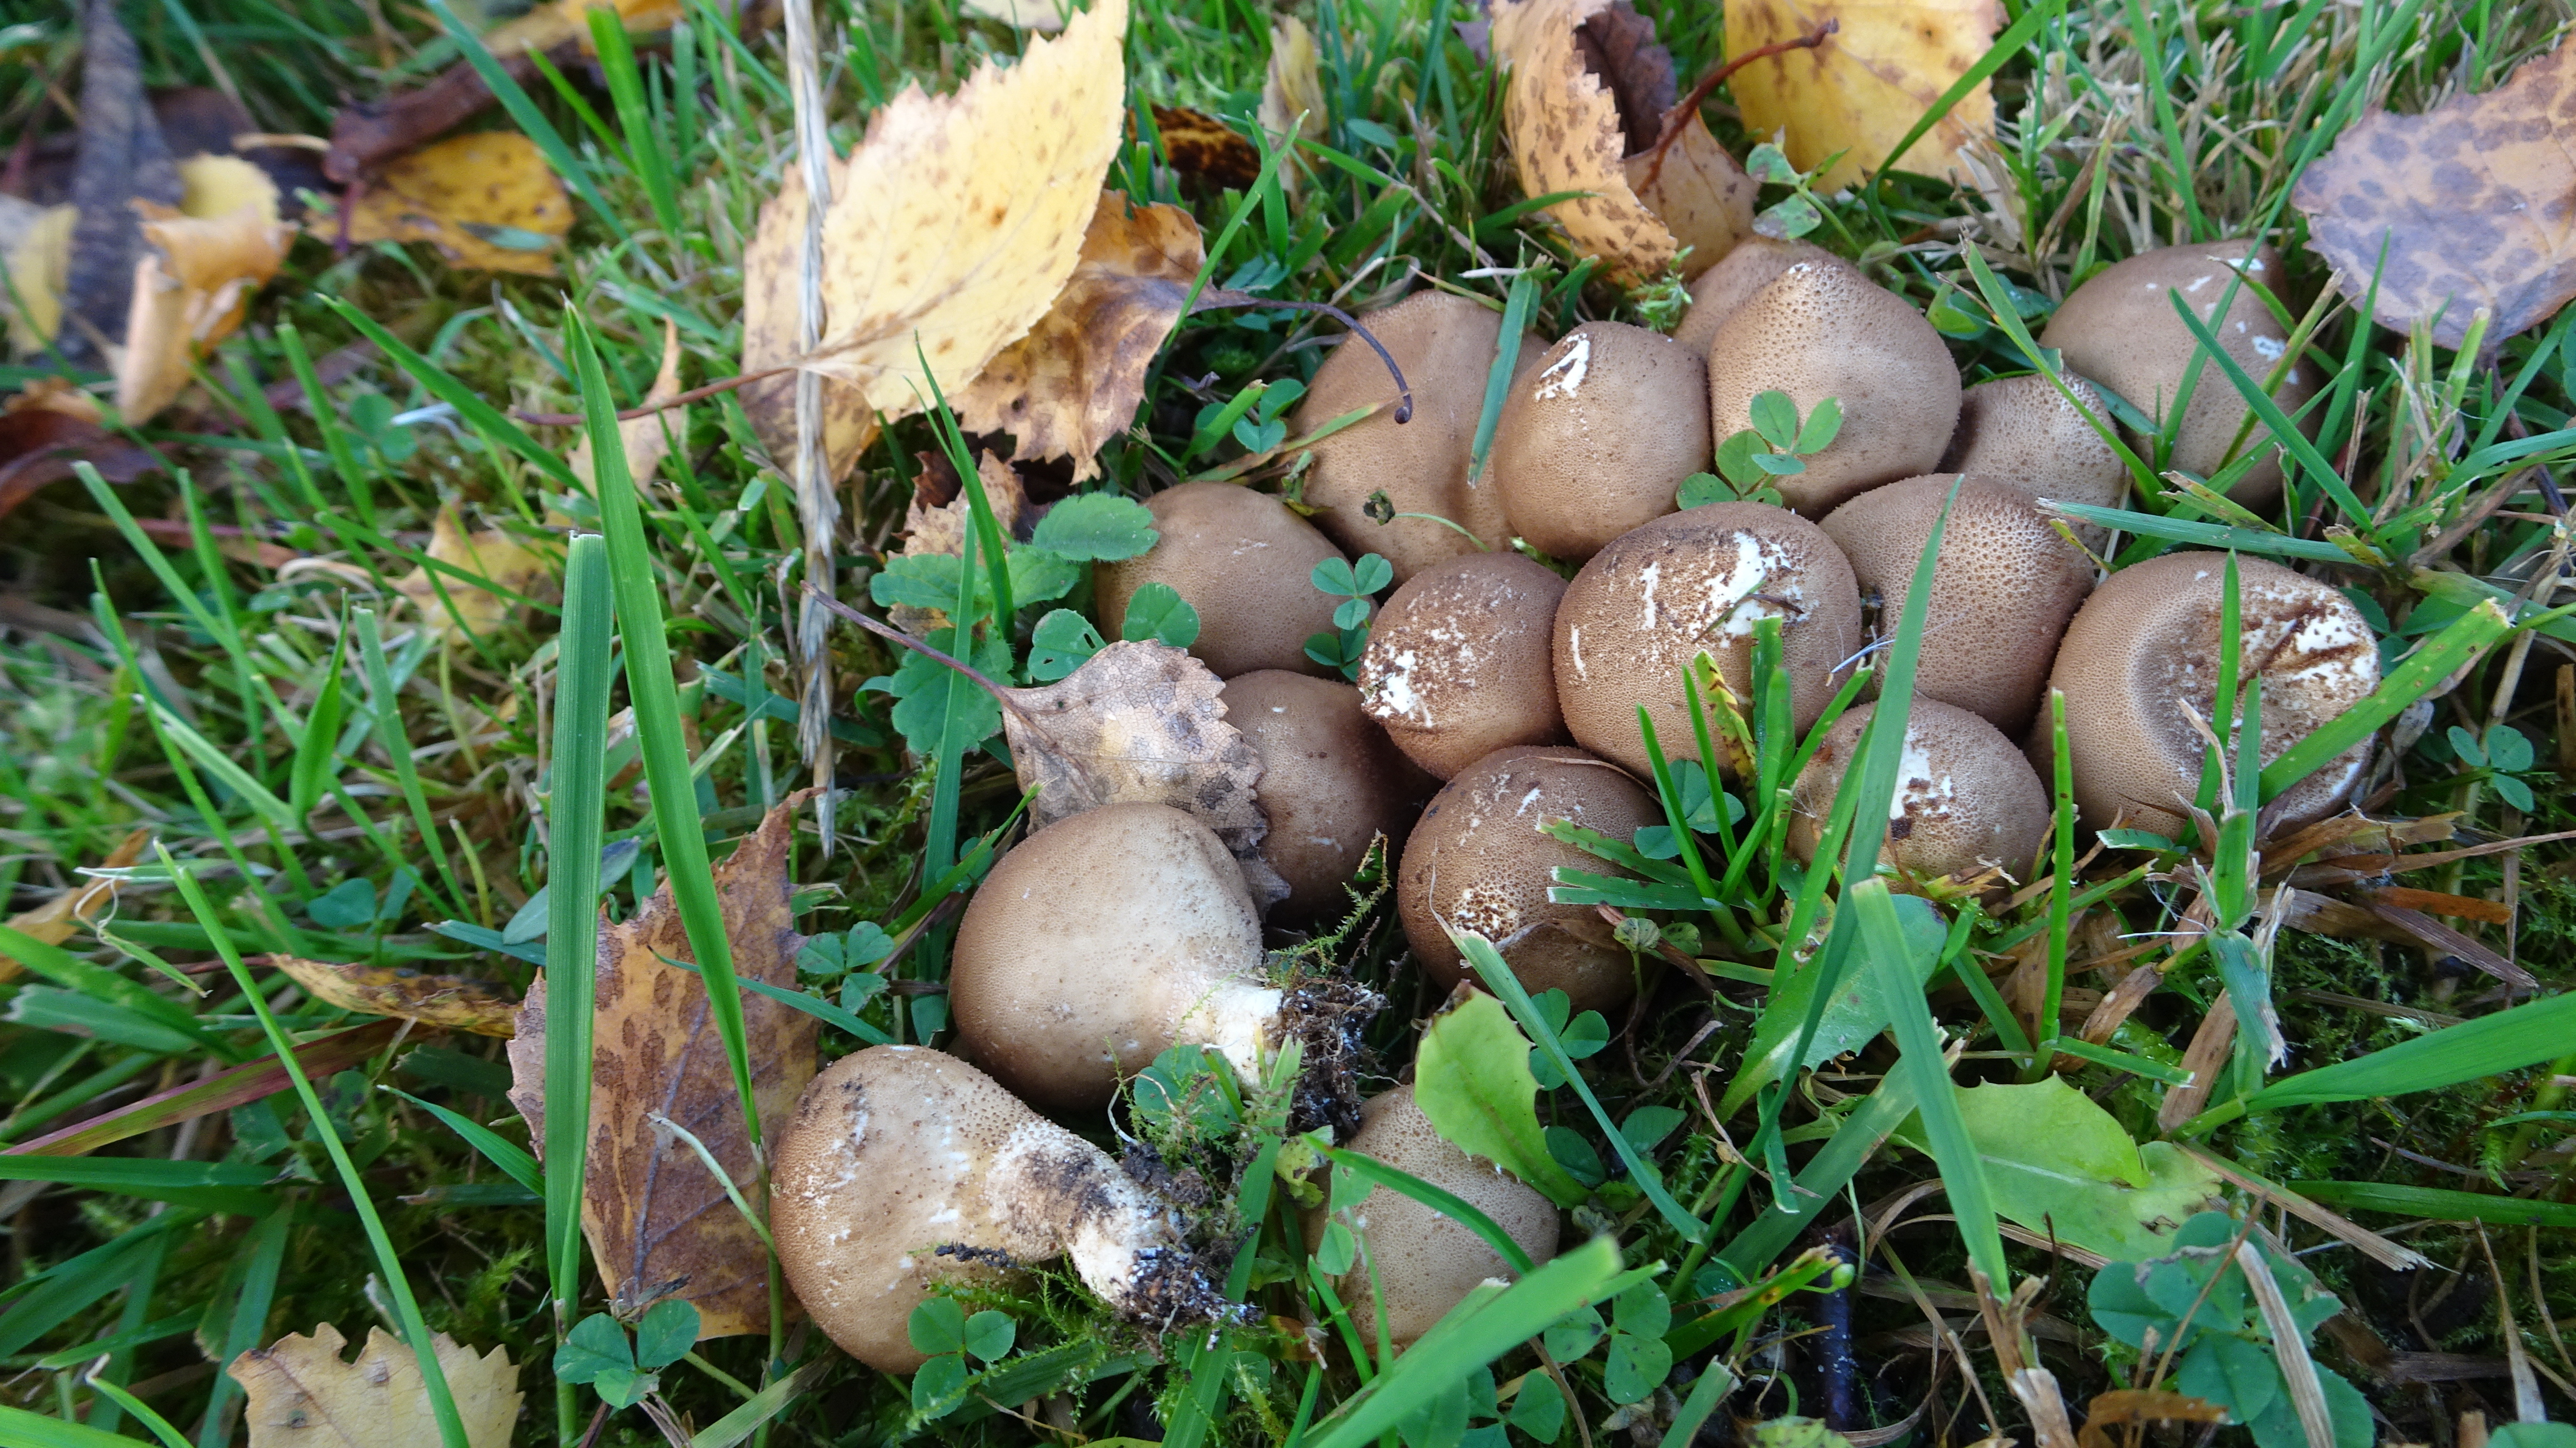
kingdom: Fungi
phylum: Basidiomycota
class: Agaricomycetes
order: Agaricales
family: Lycoperdaceae
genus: Apioperdon
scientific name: Apioperdon pyriforme
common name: Pear-shaped puffball
